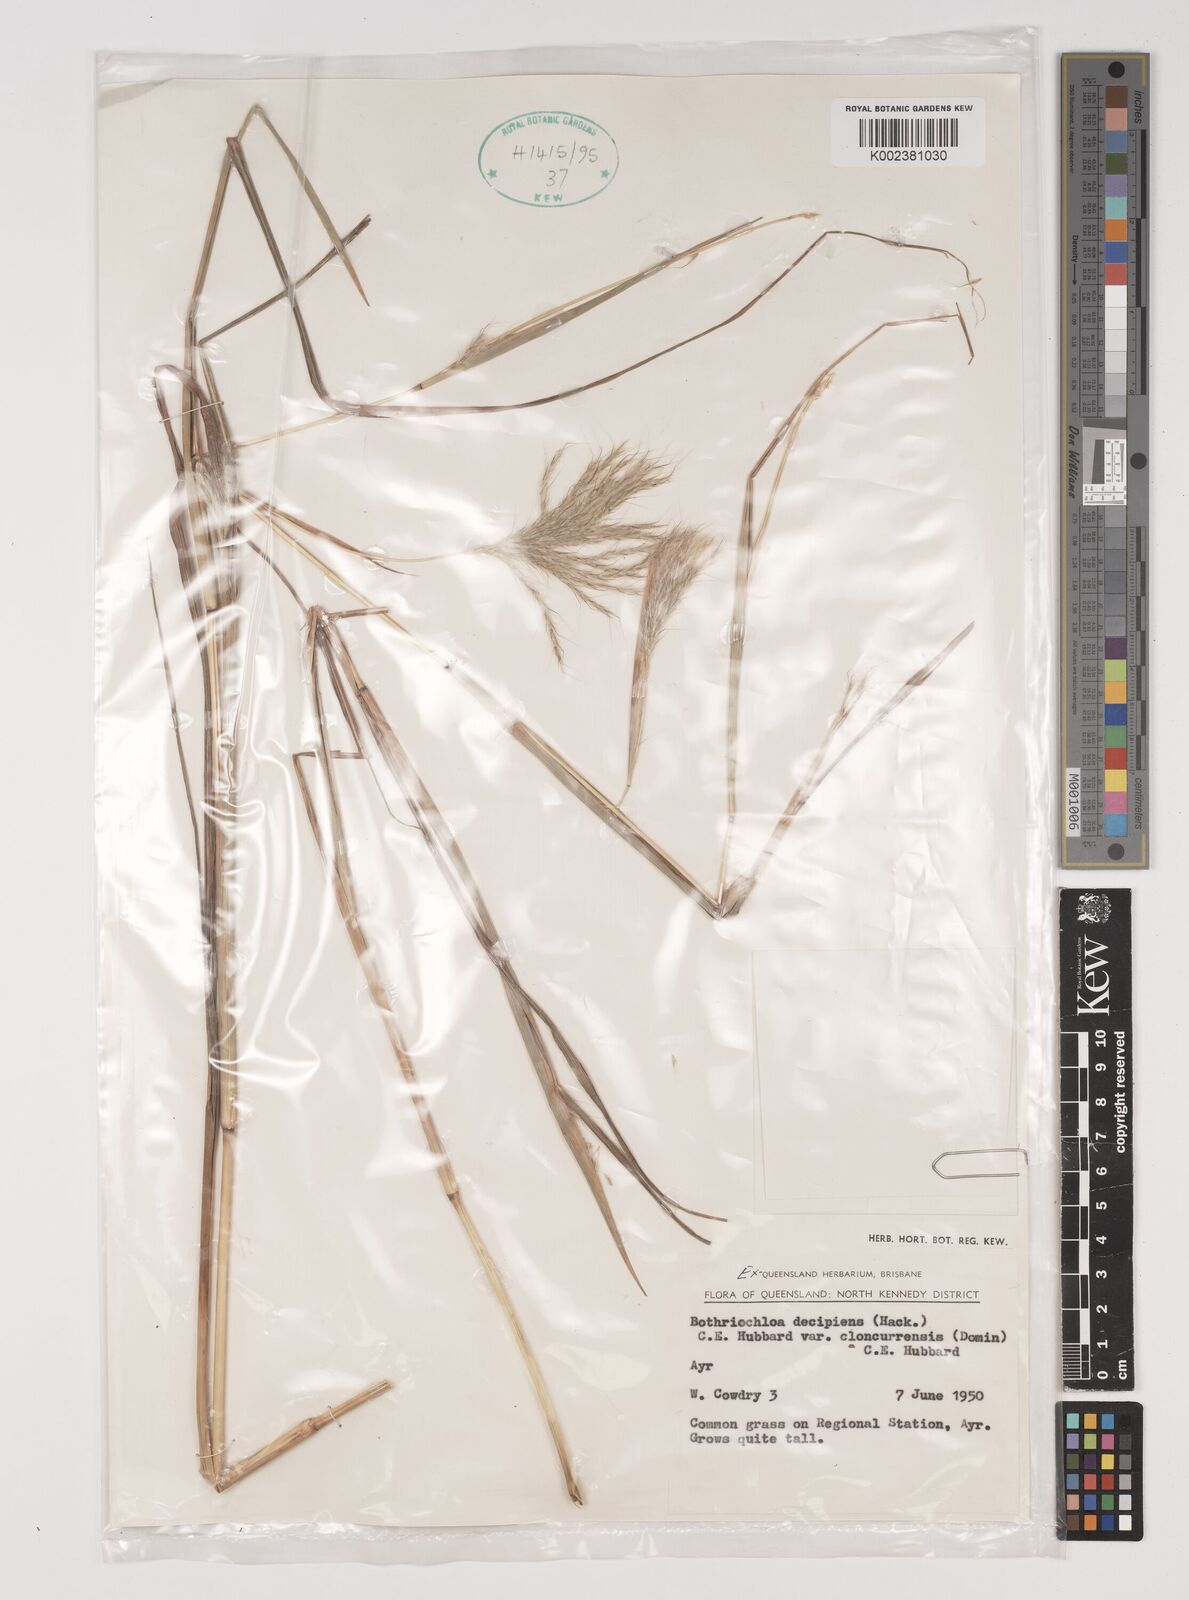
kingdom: Plantae
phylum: Tracheophyta
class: Liliopsida
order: Poales
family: Poaceae
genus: Bothriochloa
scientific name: Bothriochloa decipiens
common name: Pitted-bluegrass
